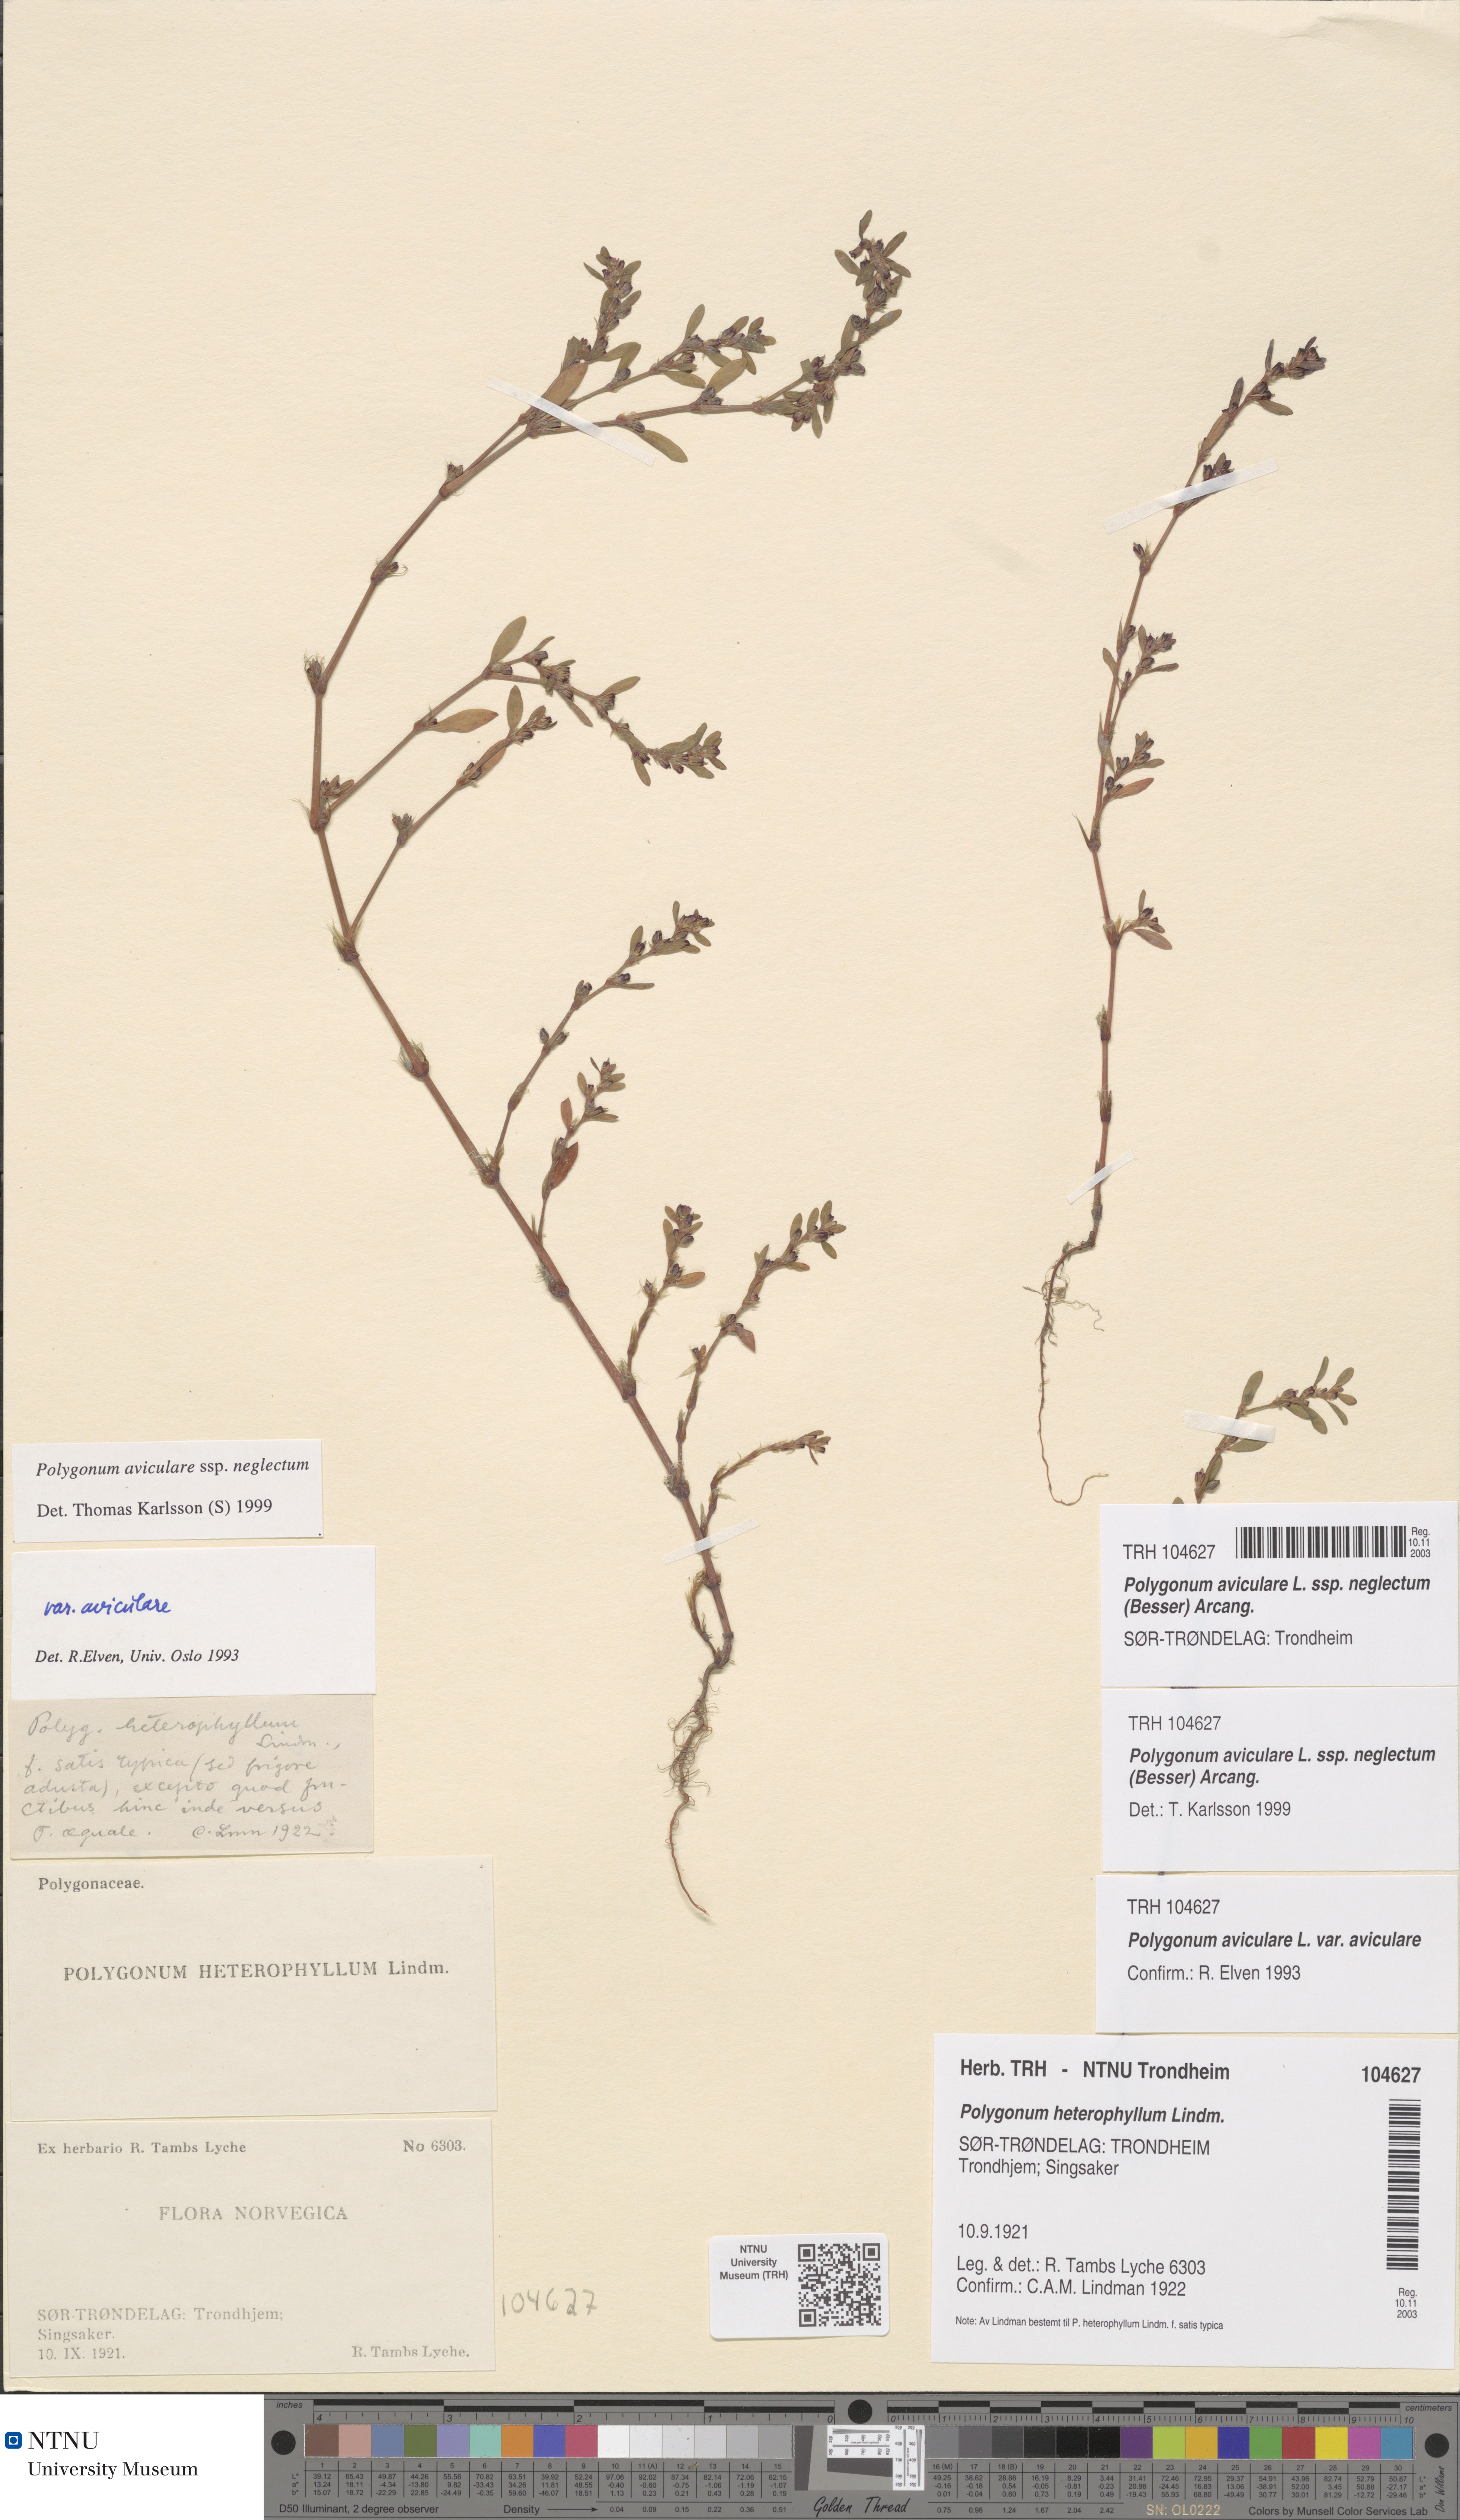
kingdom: Plantae
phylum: Tracheophyta
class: Magnoliopsida
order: Caryophyllales
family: Polygonaceae
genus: Polygonum
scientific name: Polygonum aviculare
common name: Prostrate knotweed
